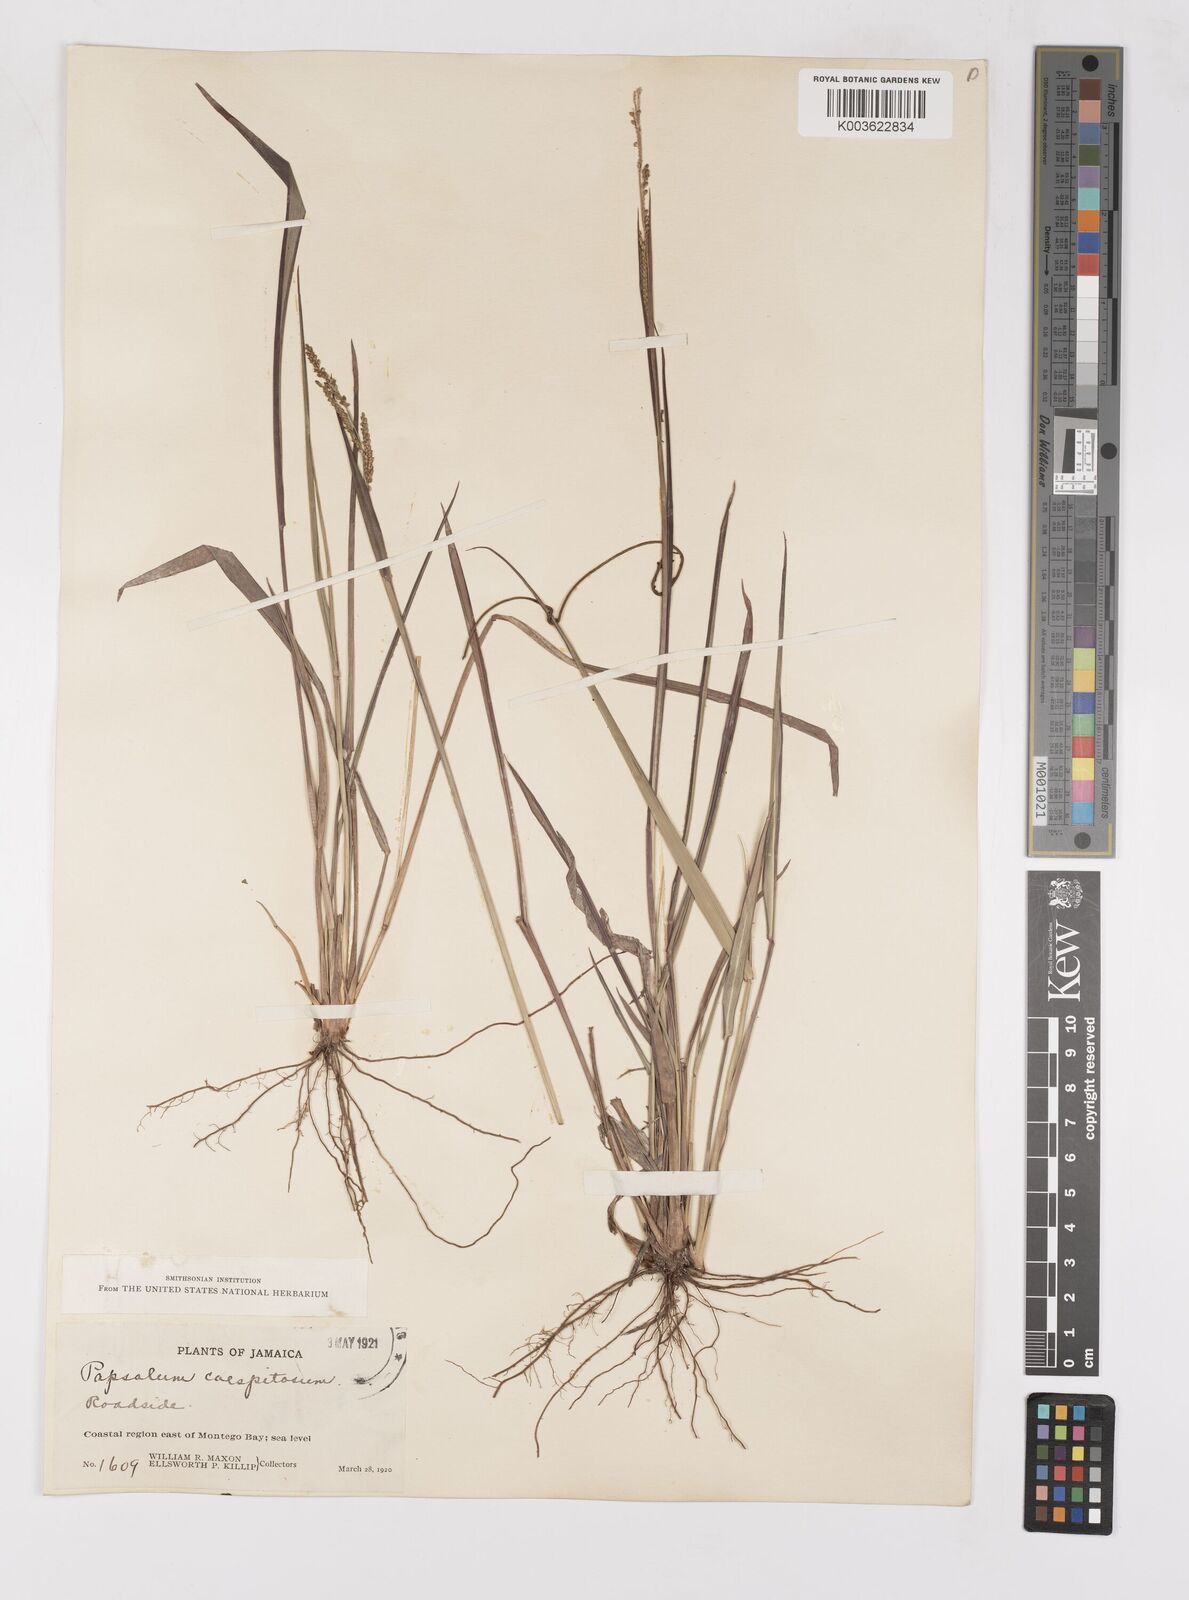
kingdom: Plantae
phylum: Tracheophyta
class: Liliopsida
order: Poales
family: Poaceae
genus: Paspalum
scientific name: Paspalum caespitosum
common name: Blue crowngrass
